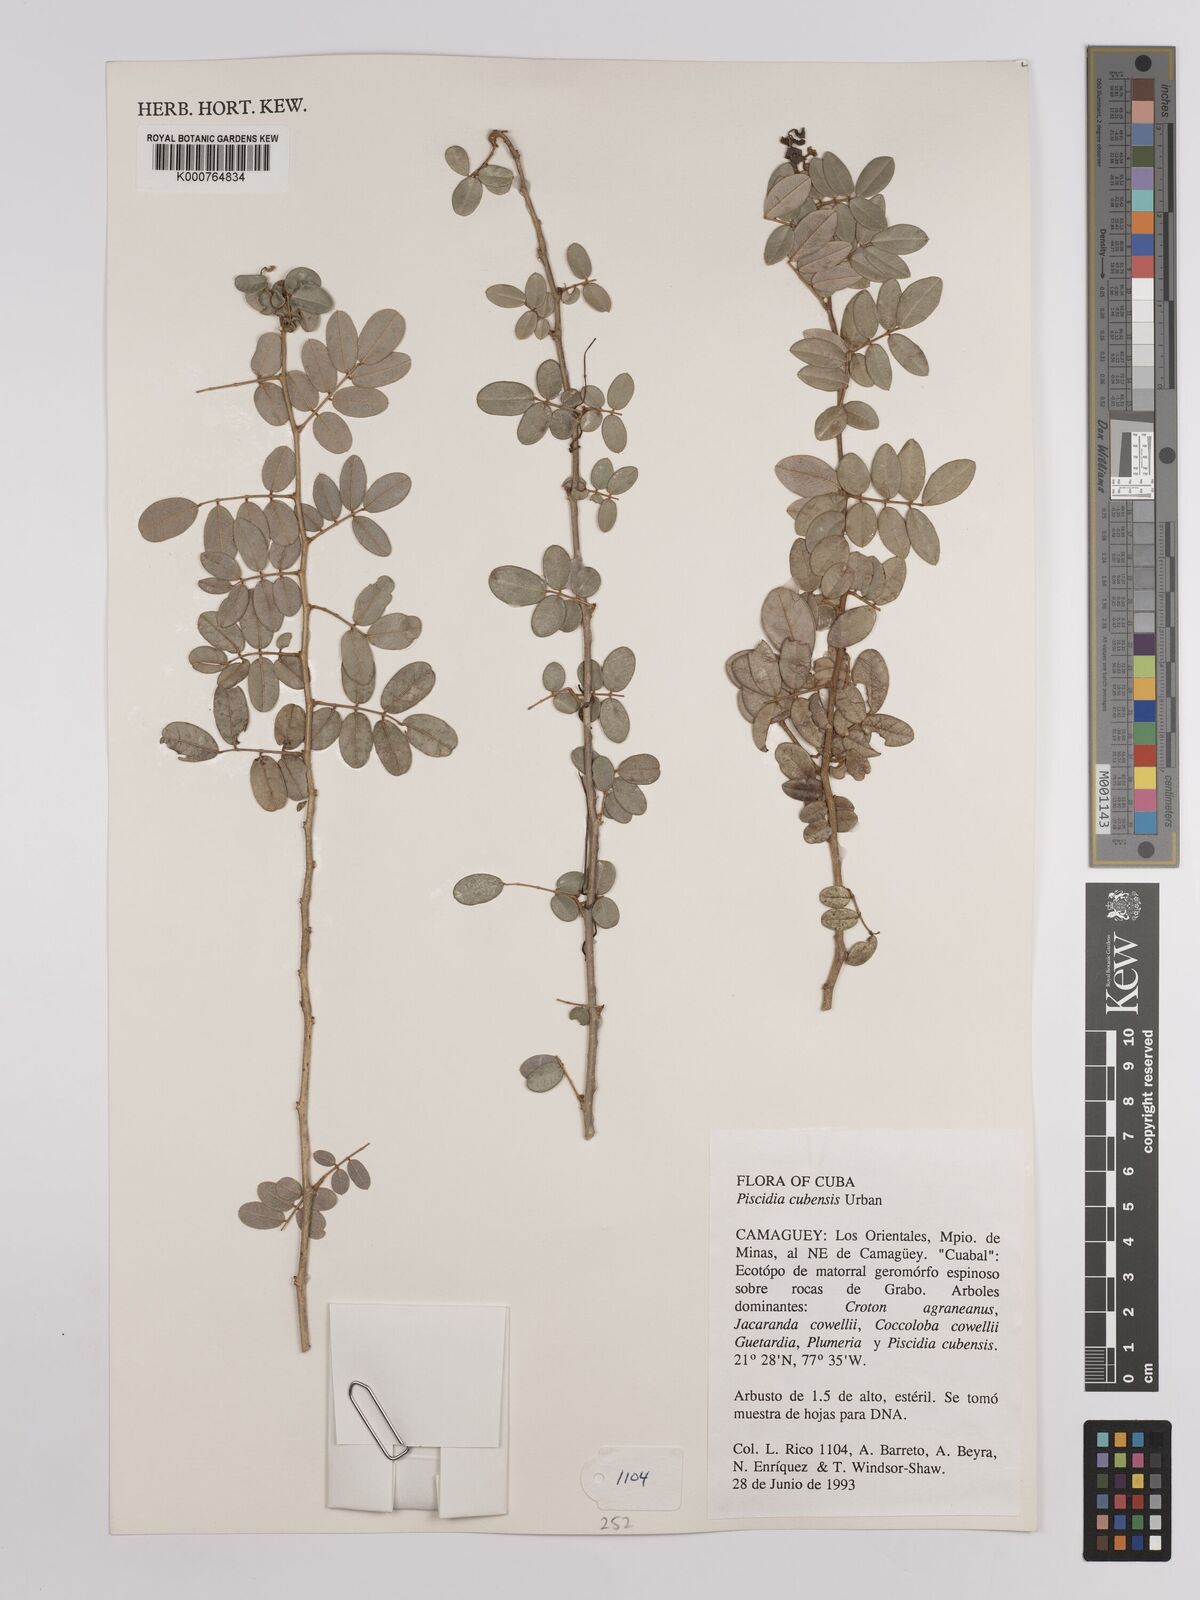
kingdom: Plantae
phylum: Tracheophyta
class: Magnoliopsida
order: Fabales
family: Fabaceae
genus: Piscidia
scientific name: Piscidia
